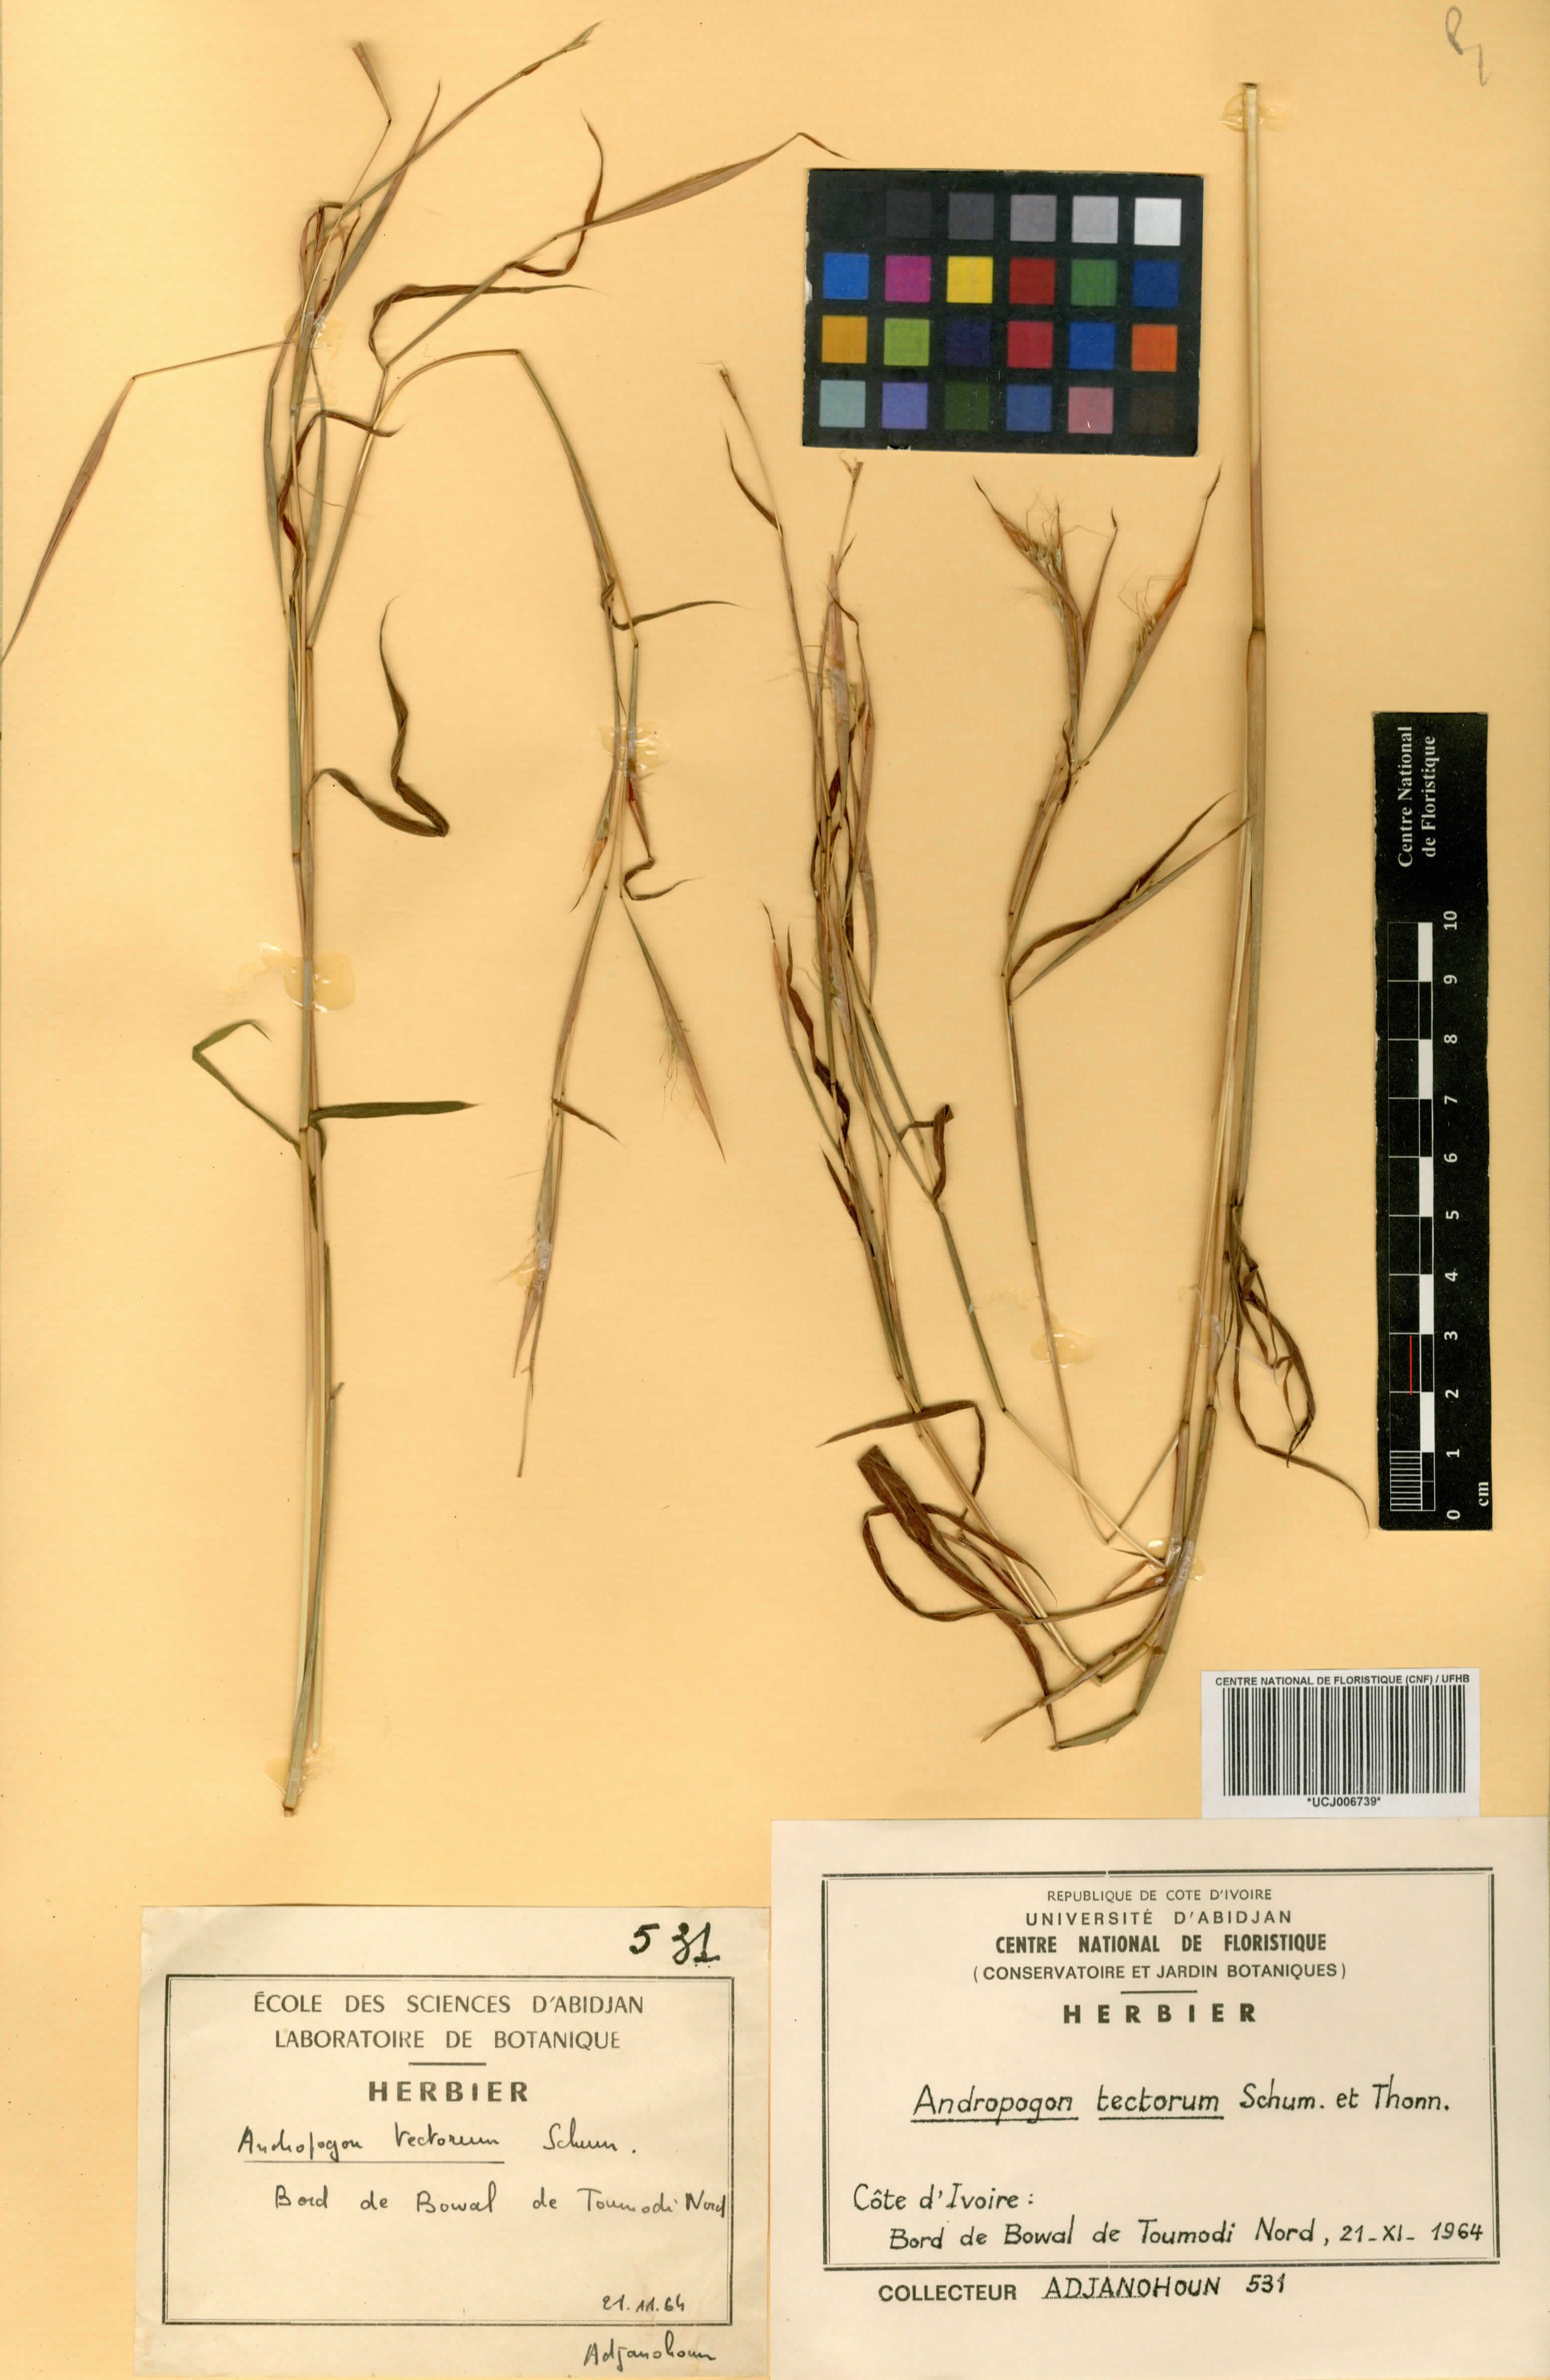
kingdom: Plantae
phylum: Tracheophyta
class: Liliopsida
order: Poales
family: Poaceae
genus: Andropogon
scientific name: Andropogon tenuiberbis
